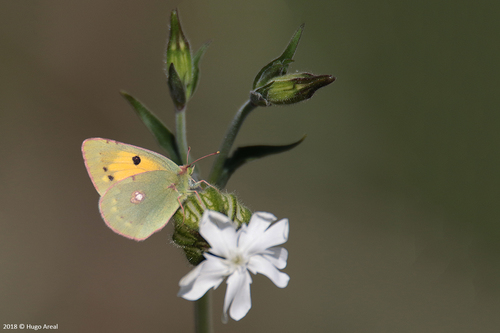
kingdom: Animalia
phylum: Arthropoda
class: Insecta
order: Lepidoptera
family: Pieridae
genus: Colias
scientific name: Colias croceus
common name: Clouded yellow
